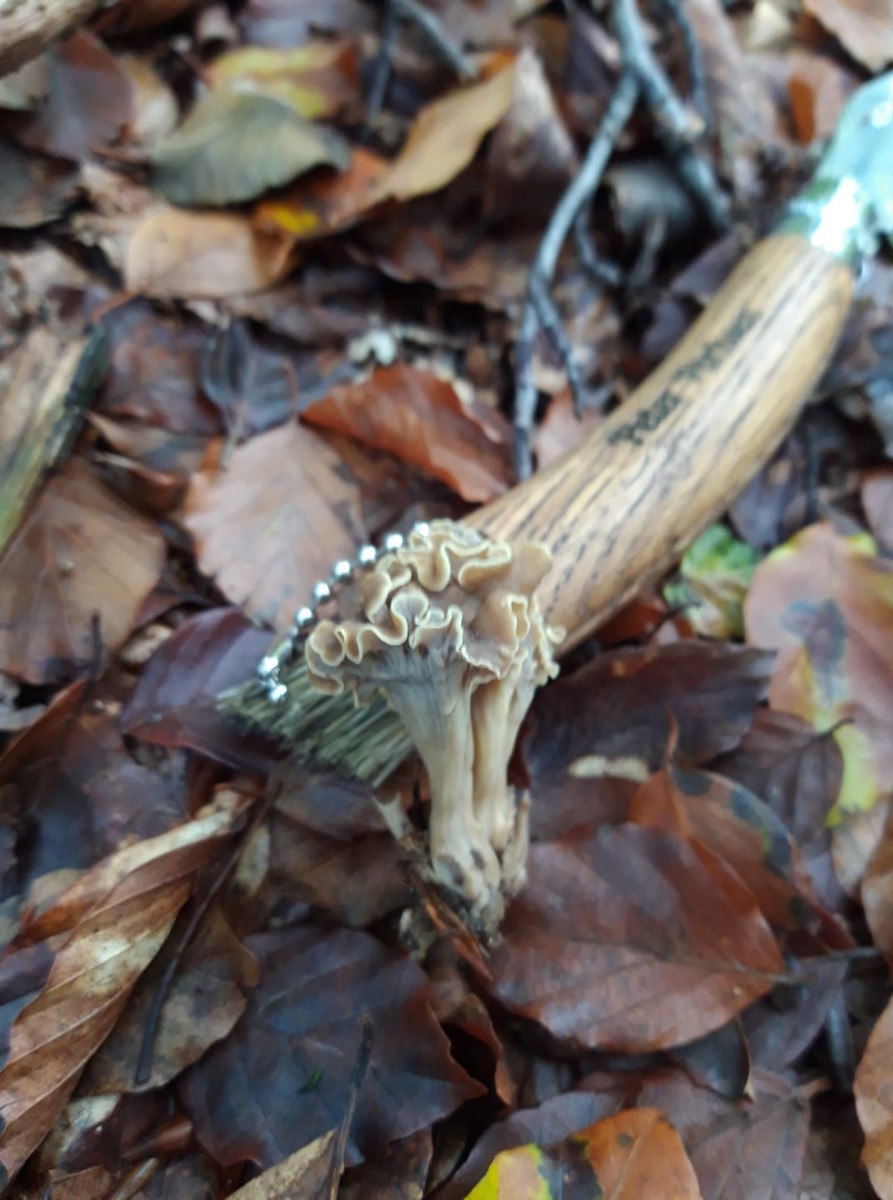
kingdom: Fungi
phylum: Basidiomycota
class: Agaricomycetes
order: Cantharellales
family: Hydnaceae
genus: Craterellus
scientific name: Craterellus undulatus
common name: liden kantarel
